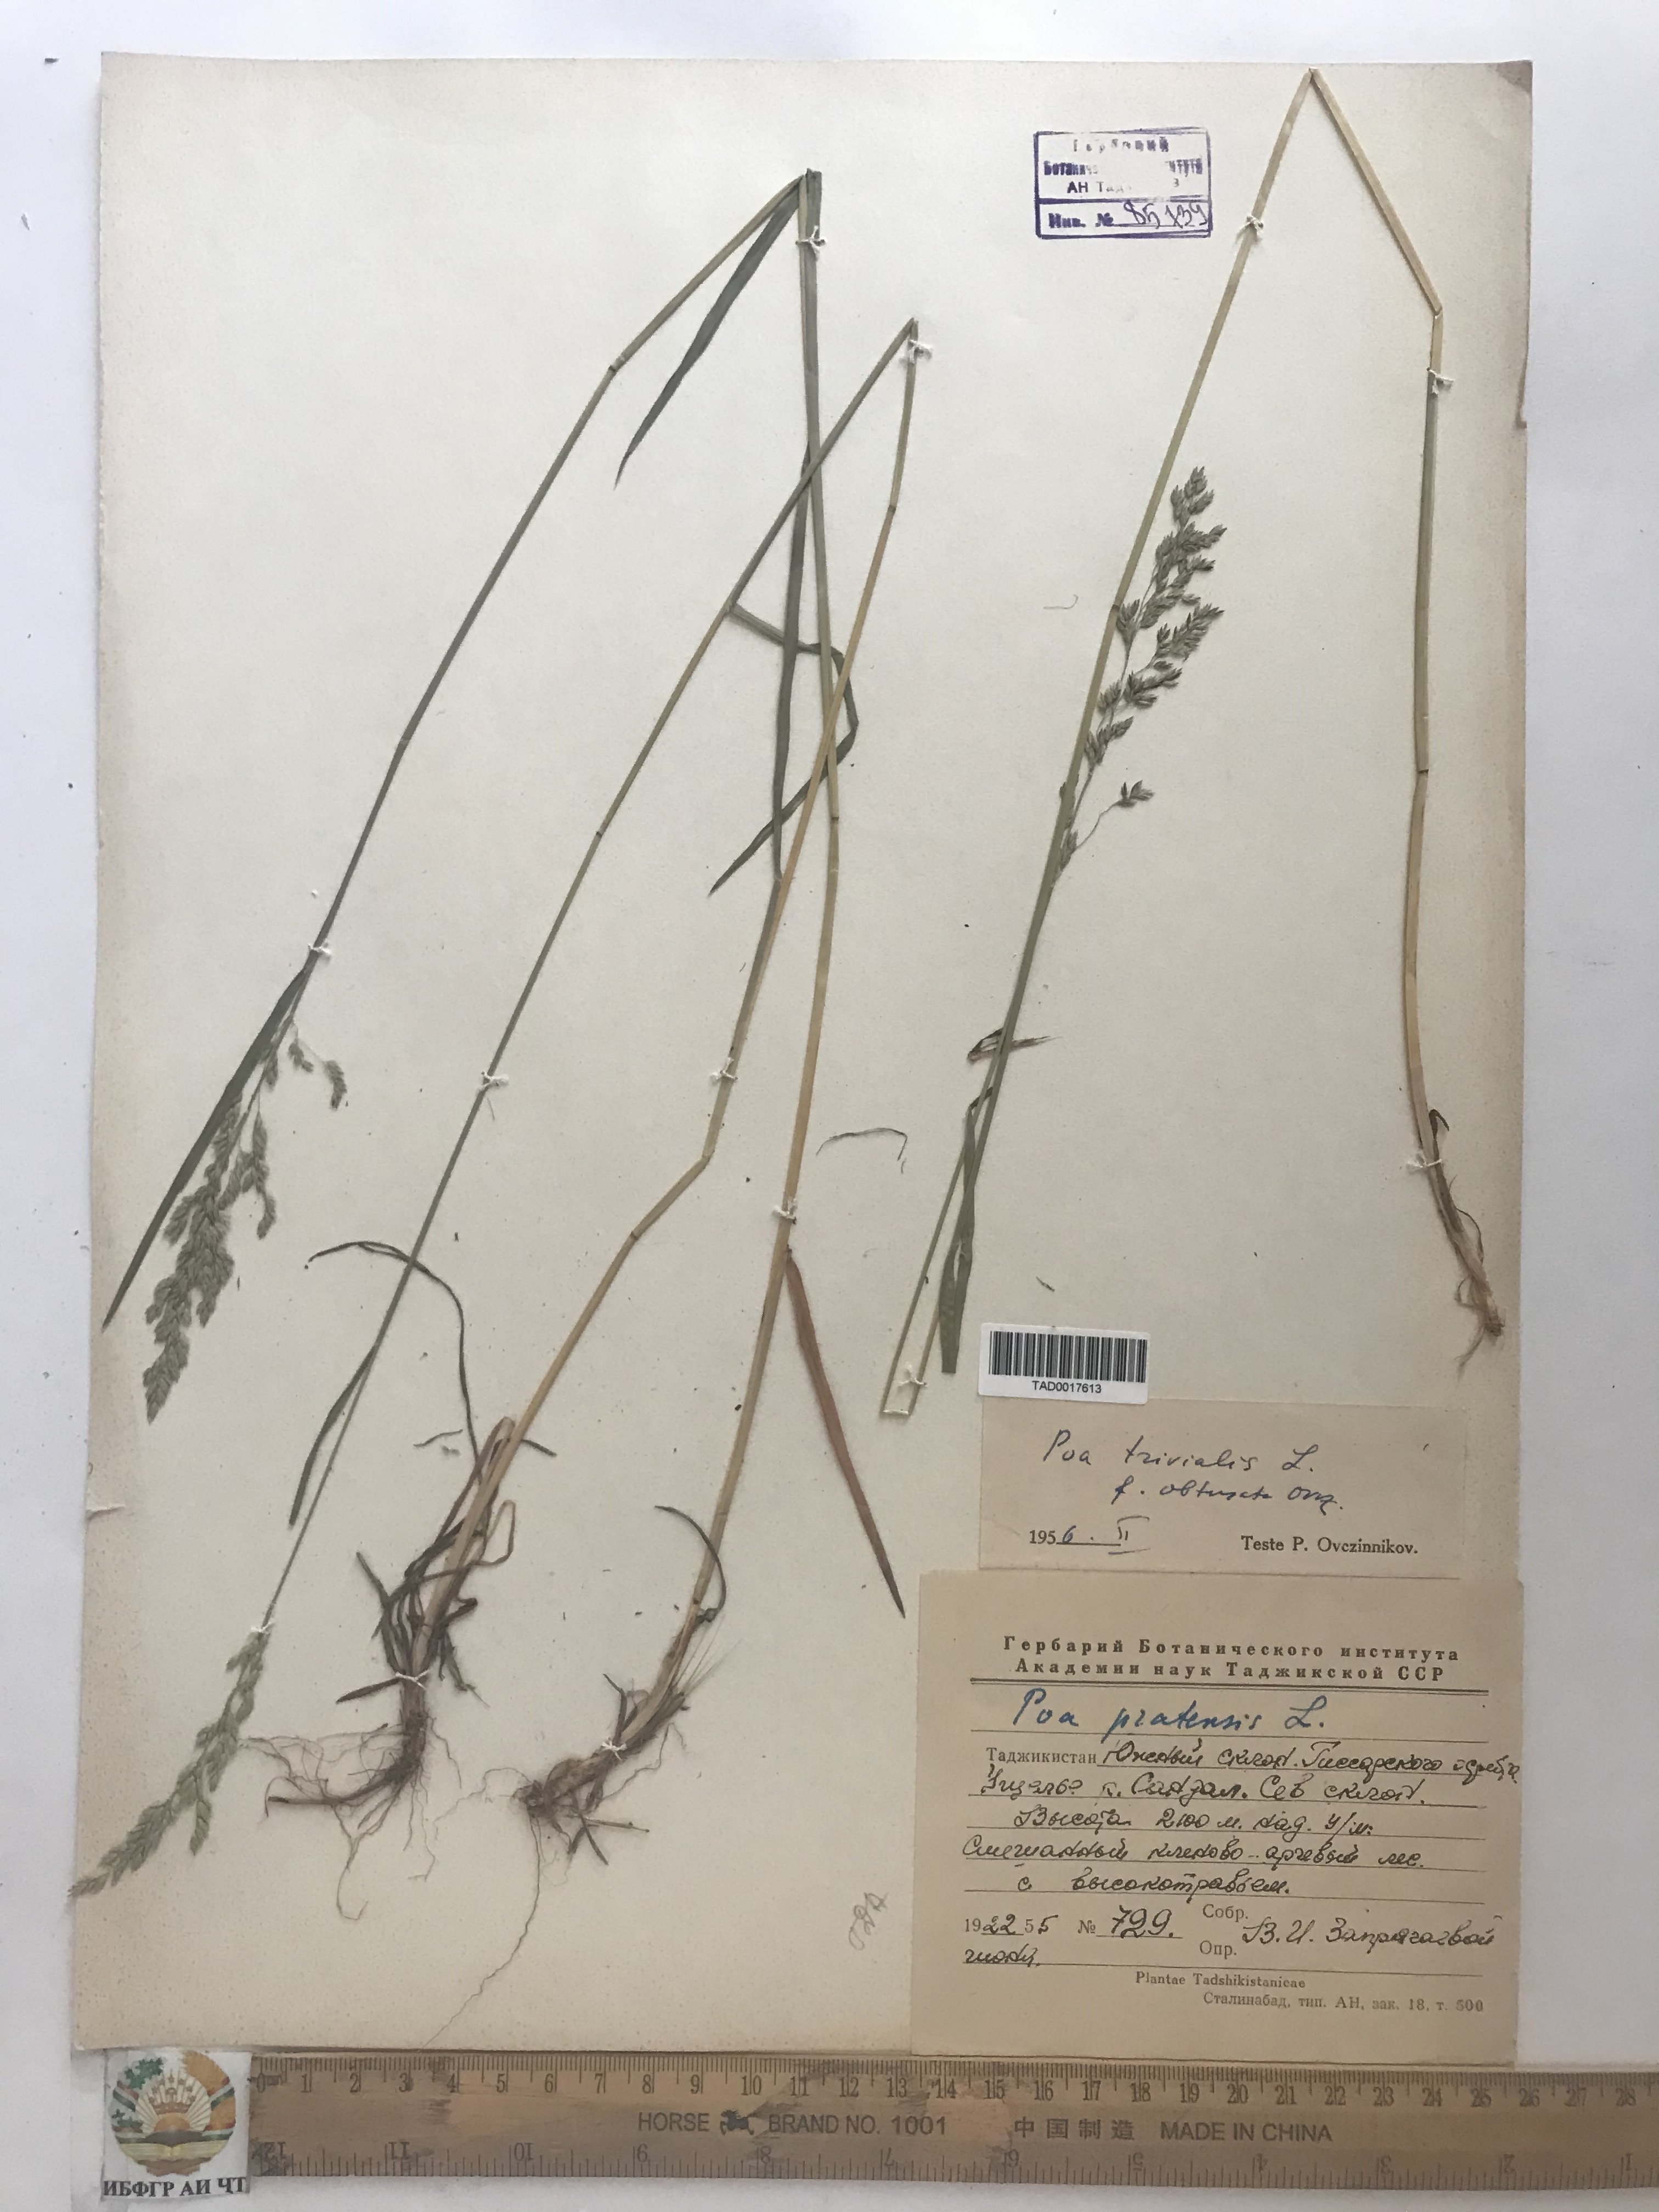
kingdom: Plantae
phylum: Tracheophyta
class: Liliopsida
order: Poales
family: Poaceae
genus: Poa
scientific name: Poa trivialis
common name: Rough bluegrass
